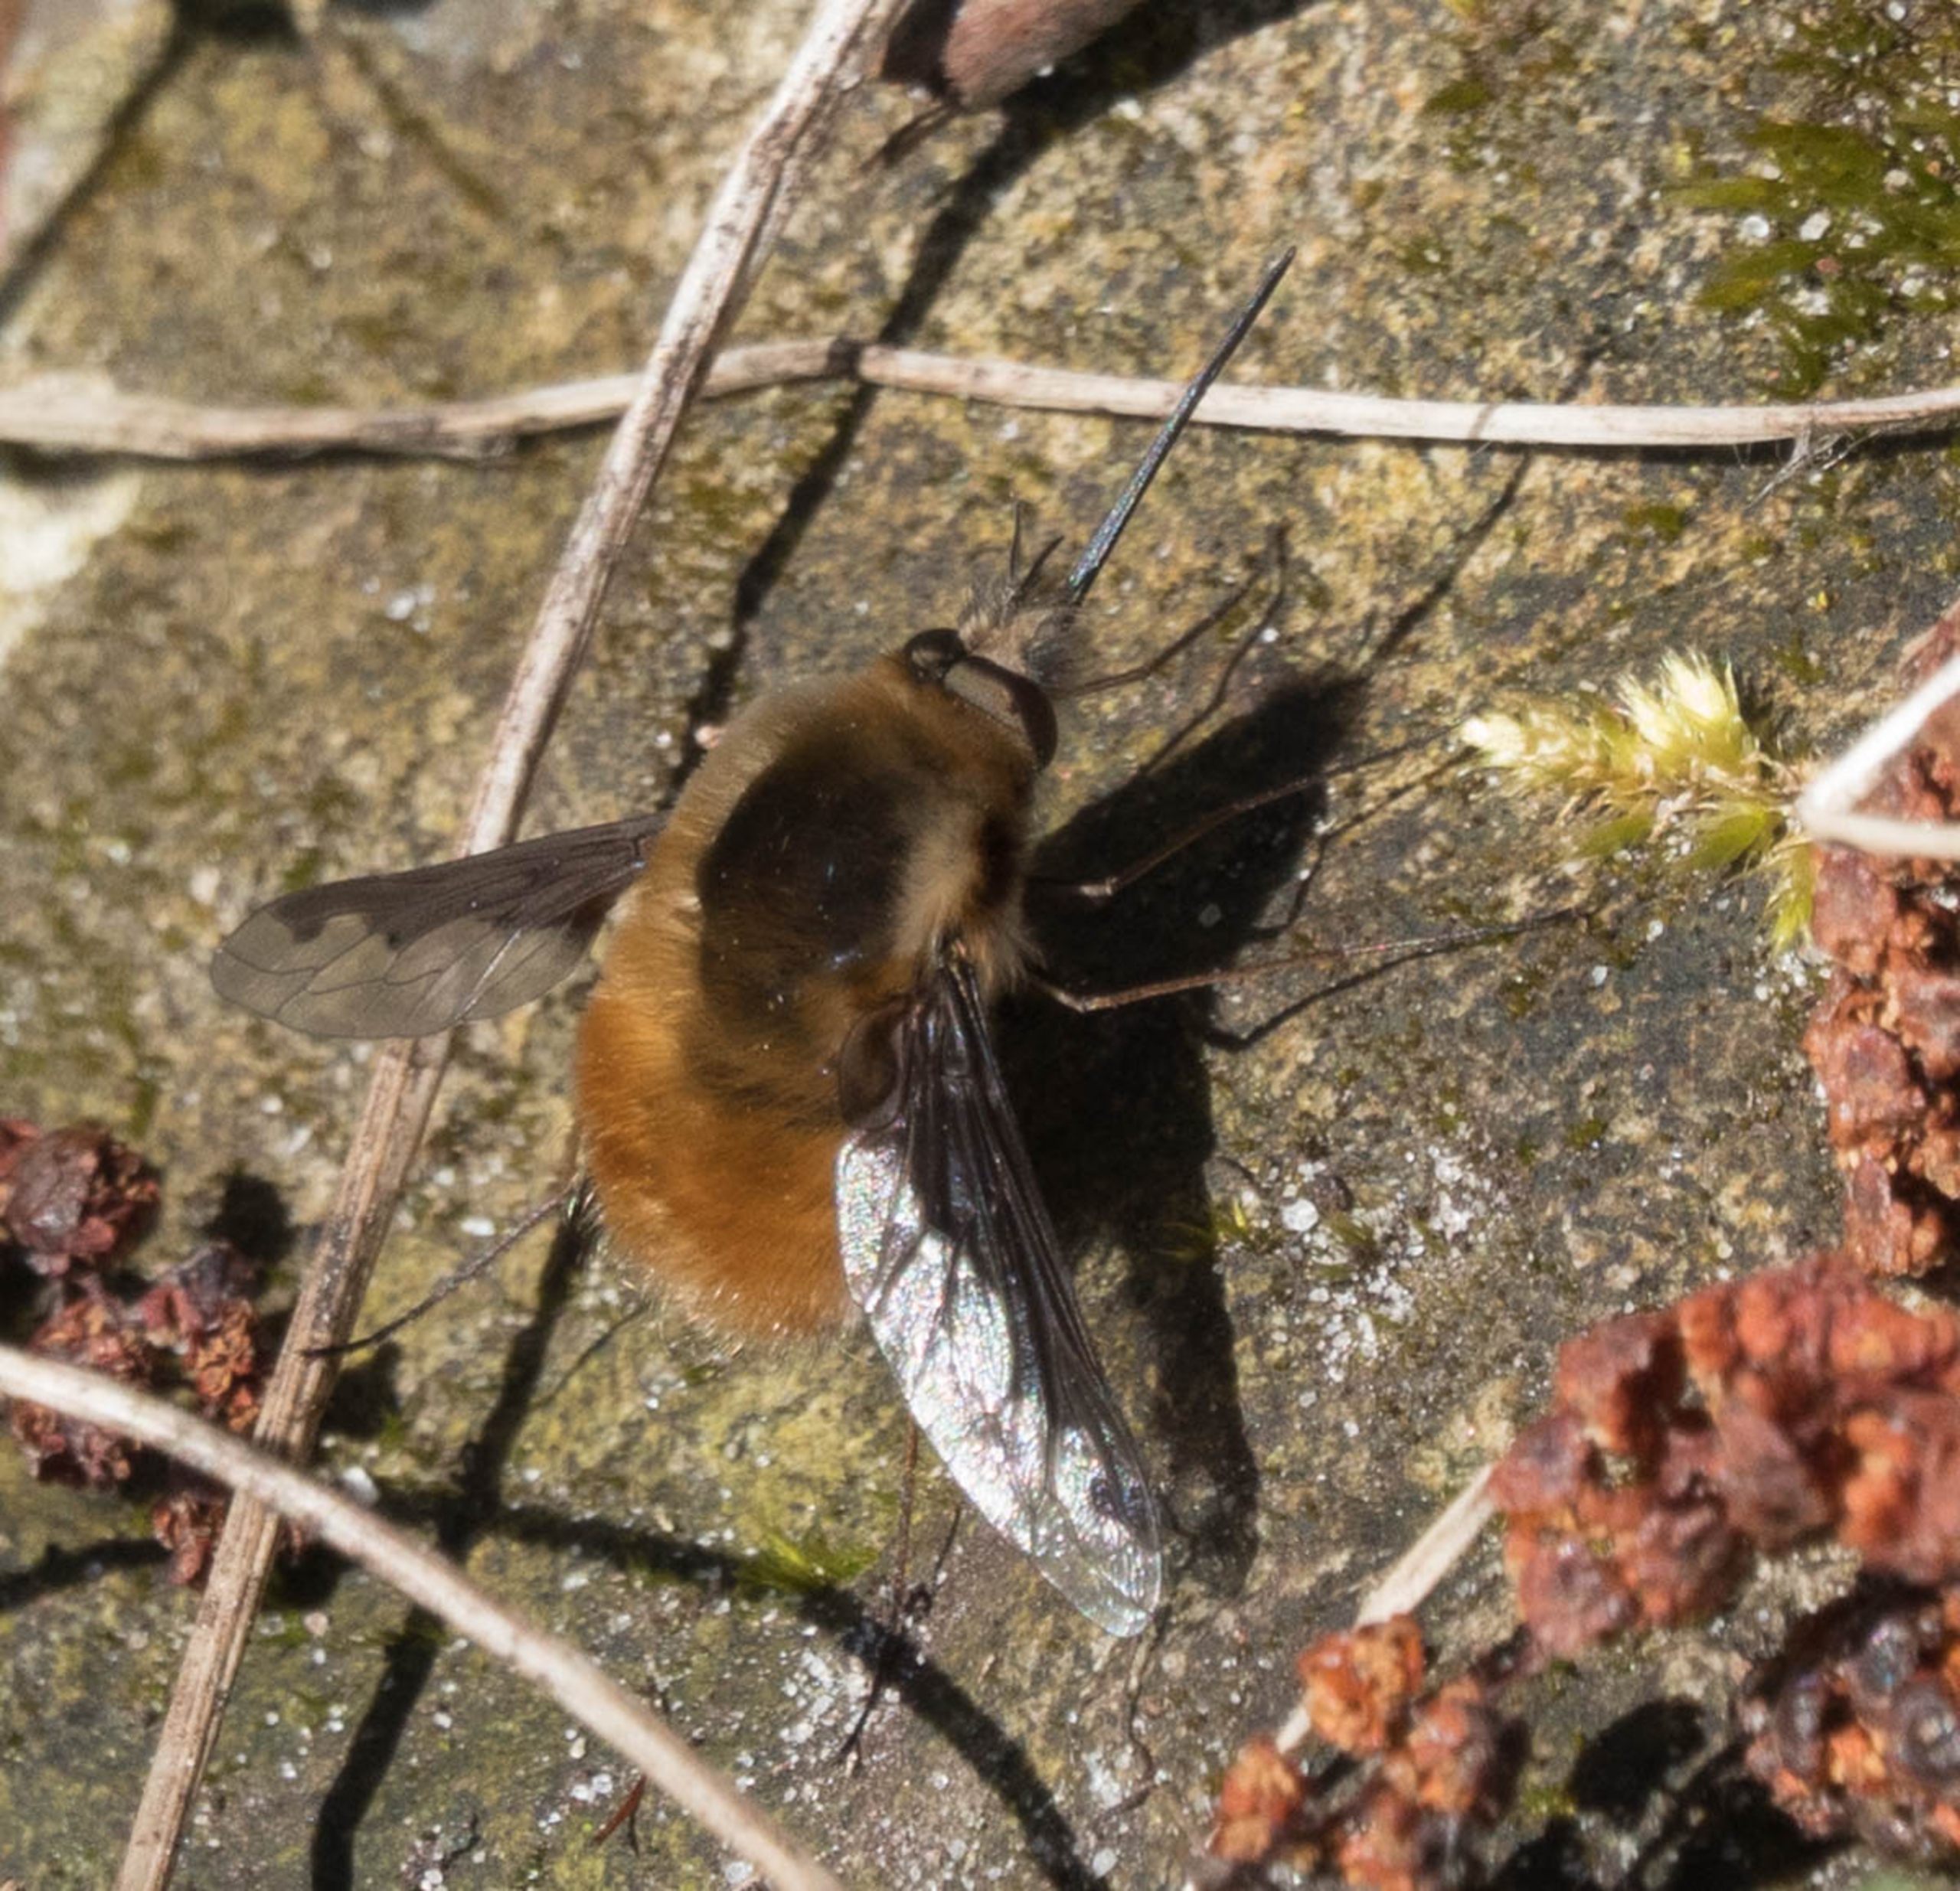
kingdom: Animalia
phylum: Arthropoda
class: Insecta
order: Diptera
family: Bombyliidae
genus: Bombylius
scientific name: Bombylius major
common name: Stor humleflue
